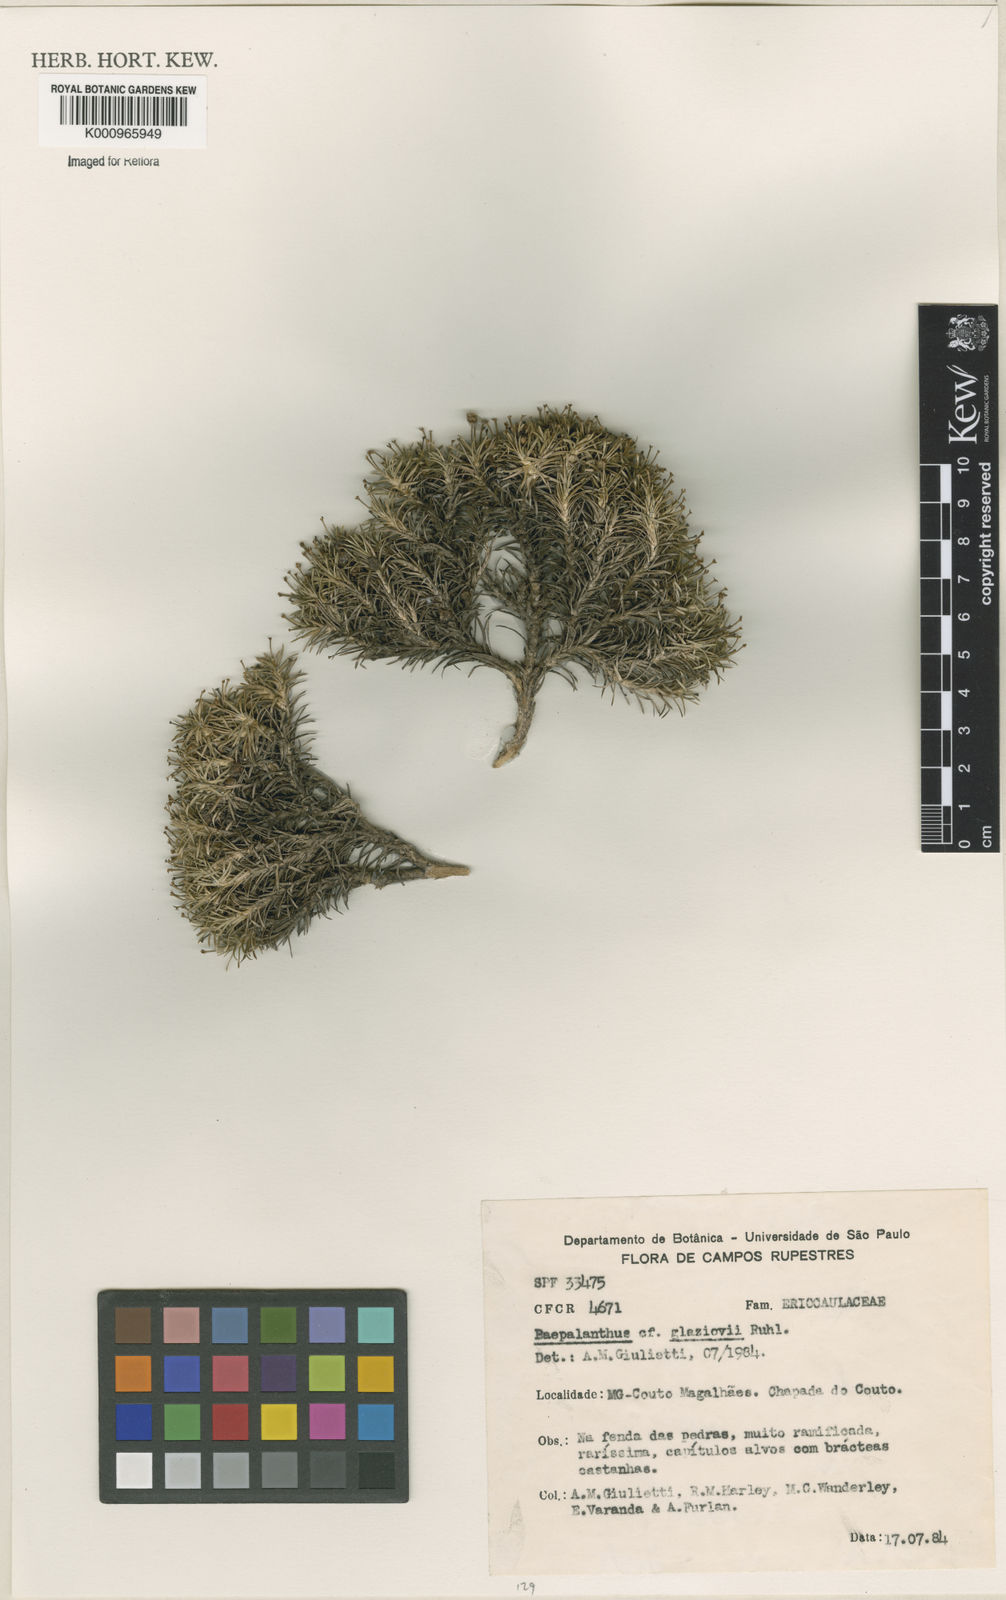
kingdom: Plantae
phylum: Tracheophyta
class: Liliopsida
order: Poales
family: Eriocaulaceae
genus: Paepalanthus
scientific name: Paepalanthus falcifolius
